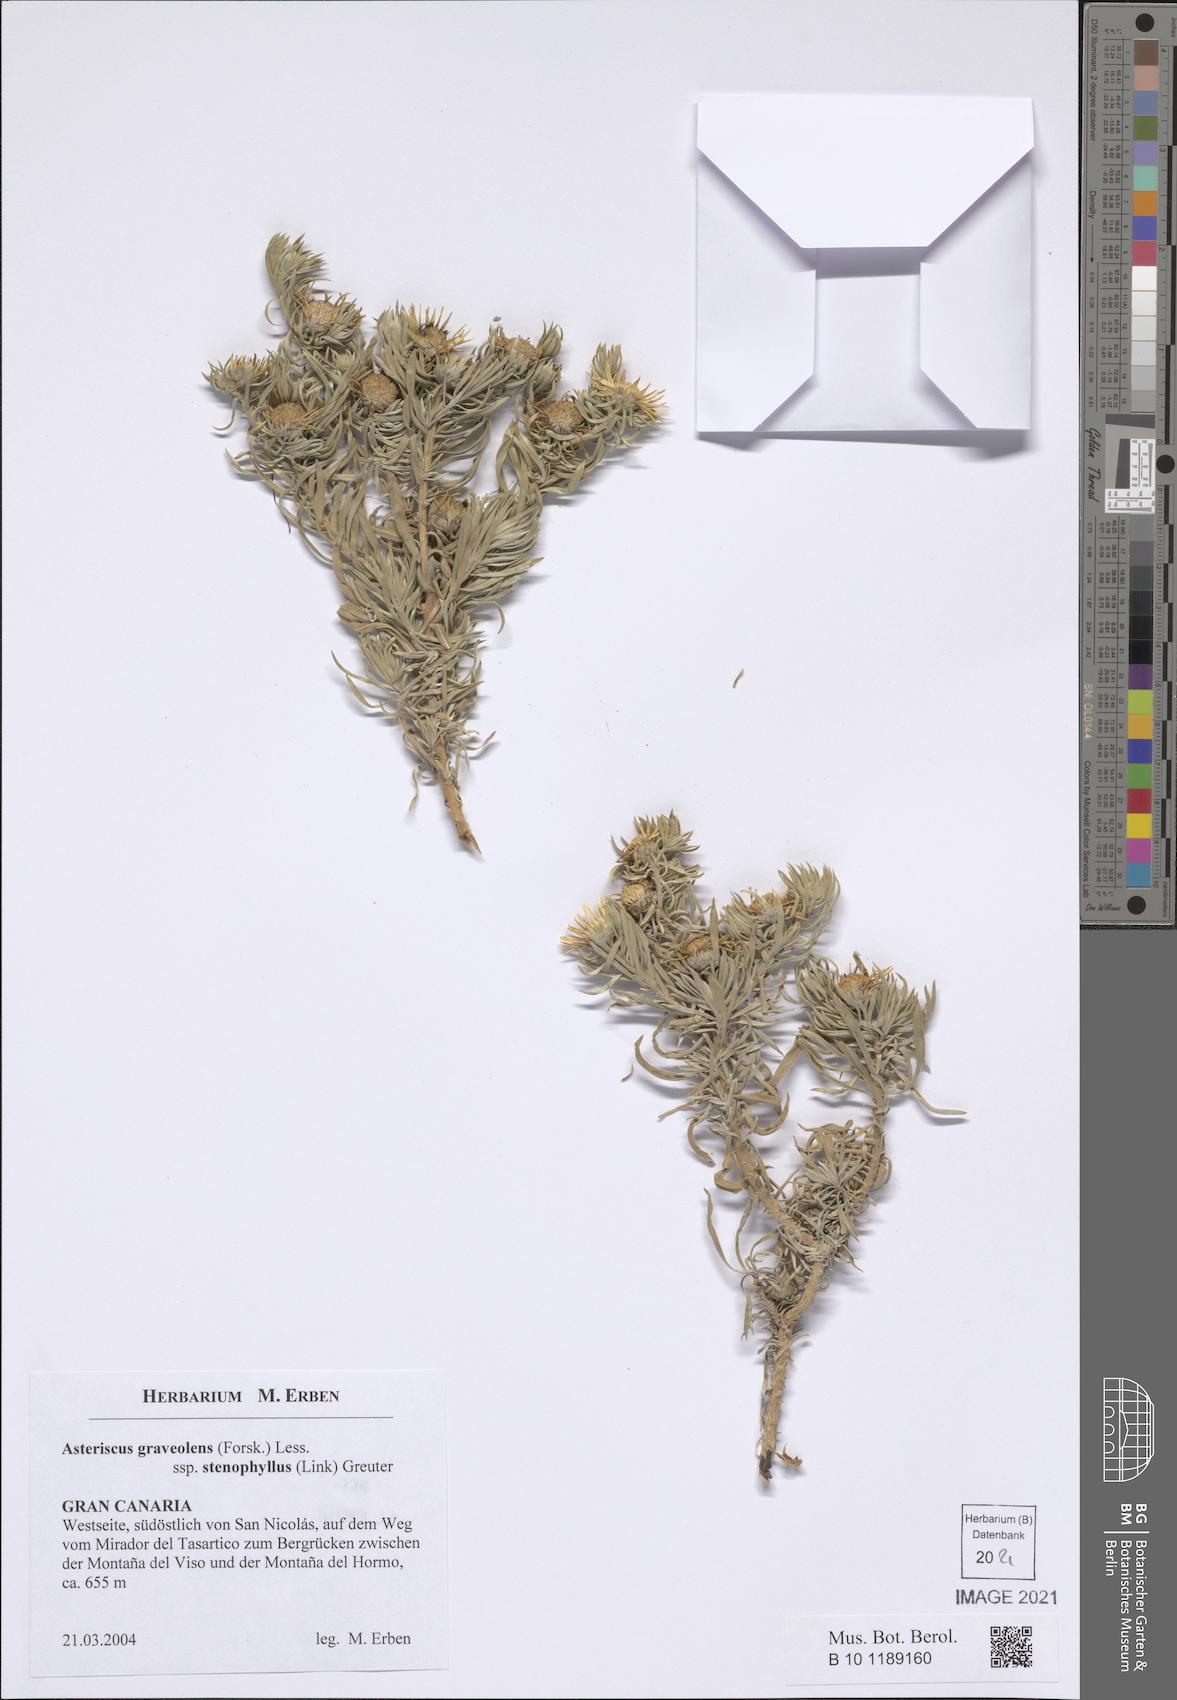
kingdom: Plantae
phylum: Tracheophyta
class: Magnoliopsida
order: Asterales
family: Asteraceae
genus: Asteriscus
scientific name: Asteriscus graveolens
